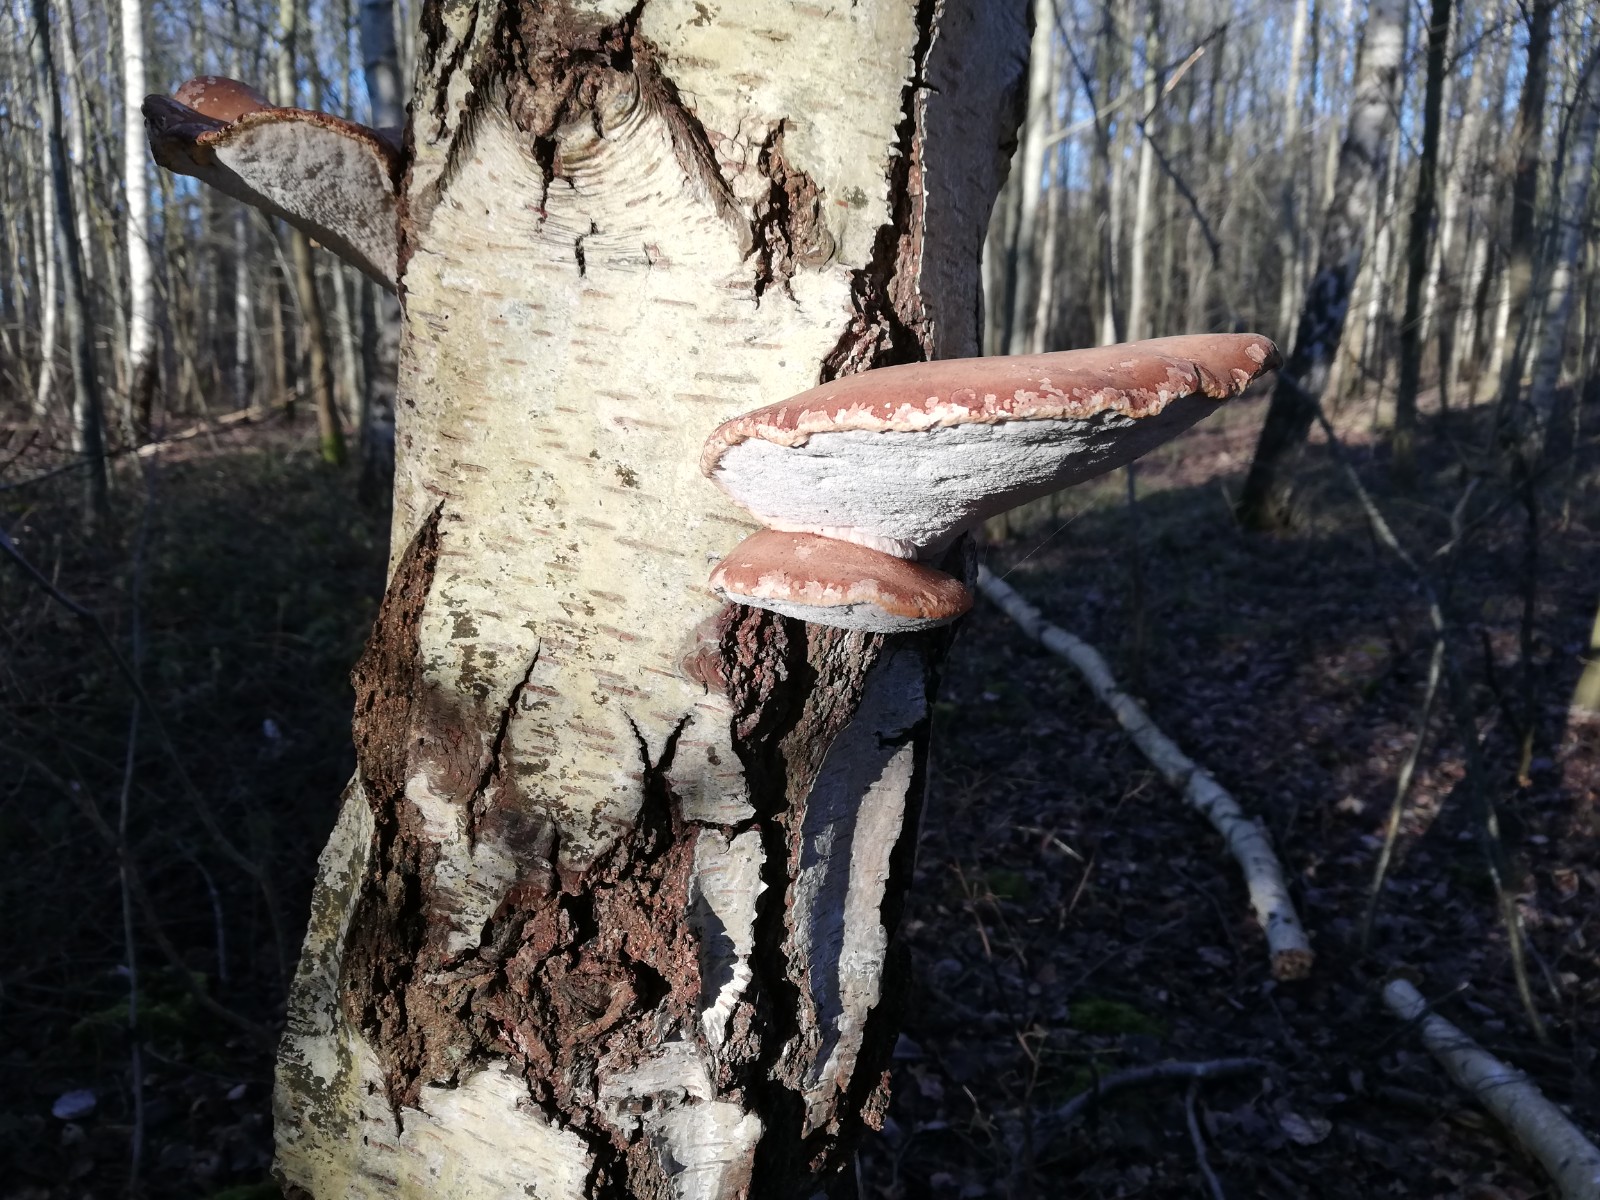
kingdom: Fungi
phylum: Basidiomycota
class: Agaricomycetes
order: Polyporales
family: Fomitopsidaceae
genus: Fomitopsis
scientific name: Fomitopsis betulina
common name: birkeporesvamp
